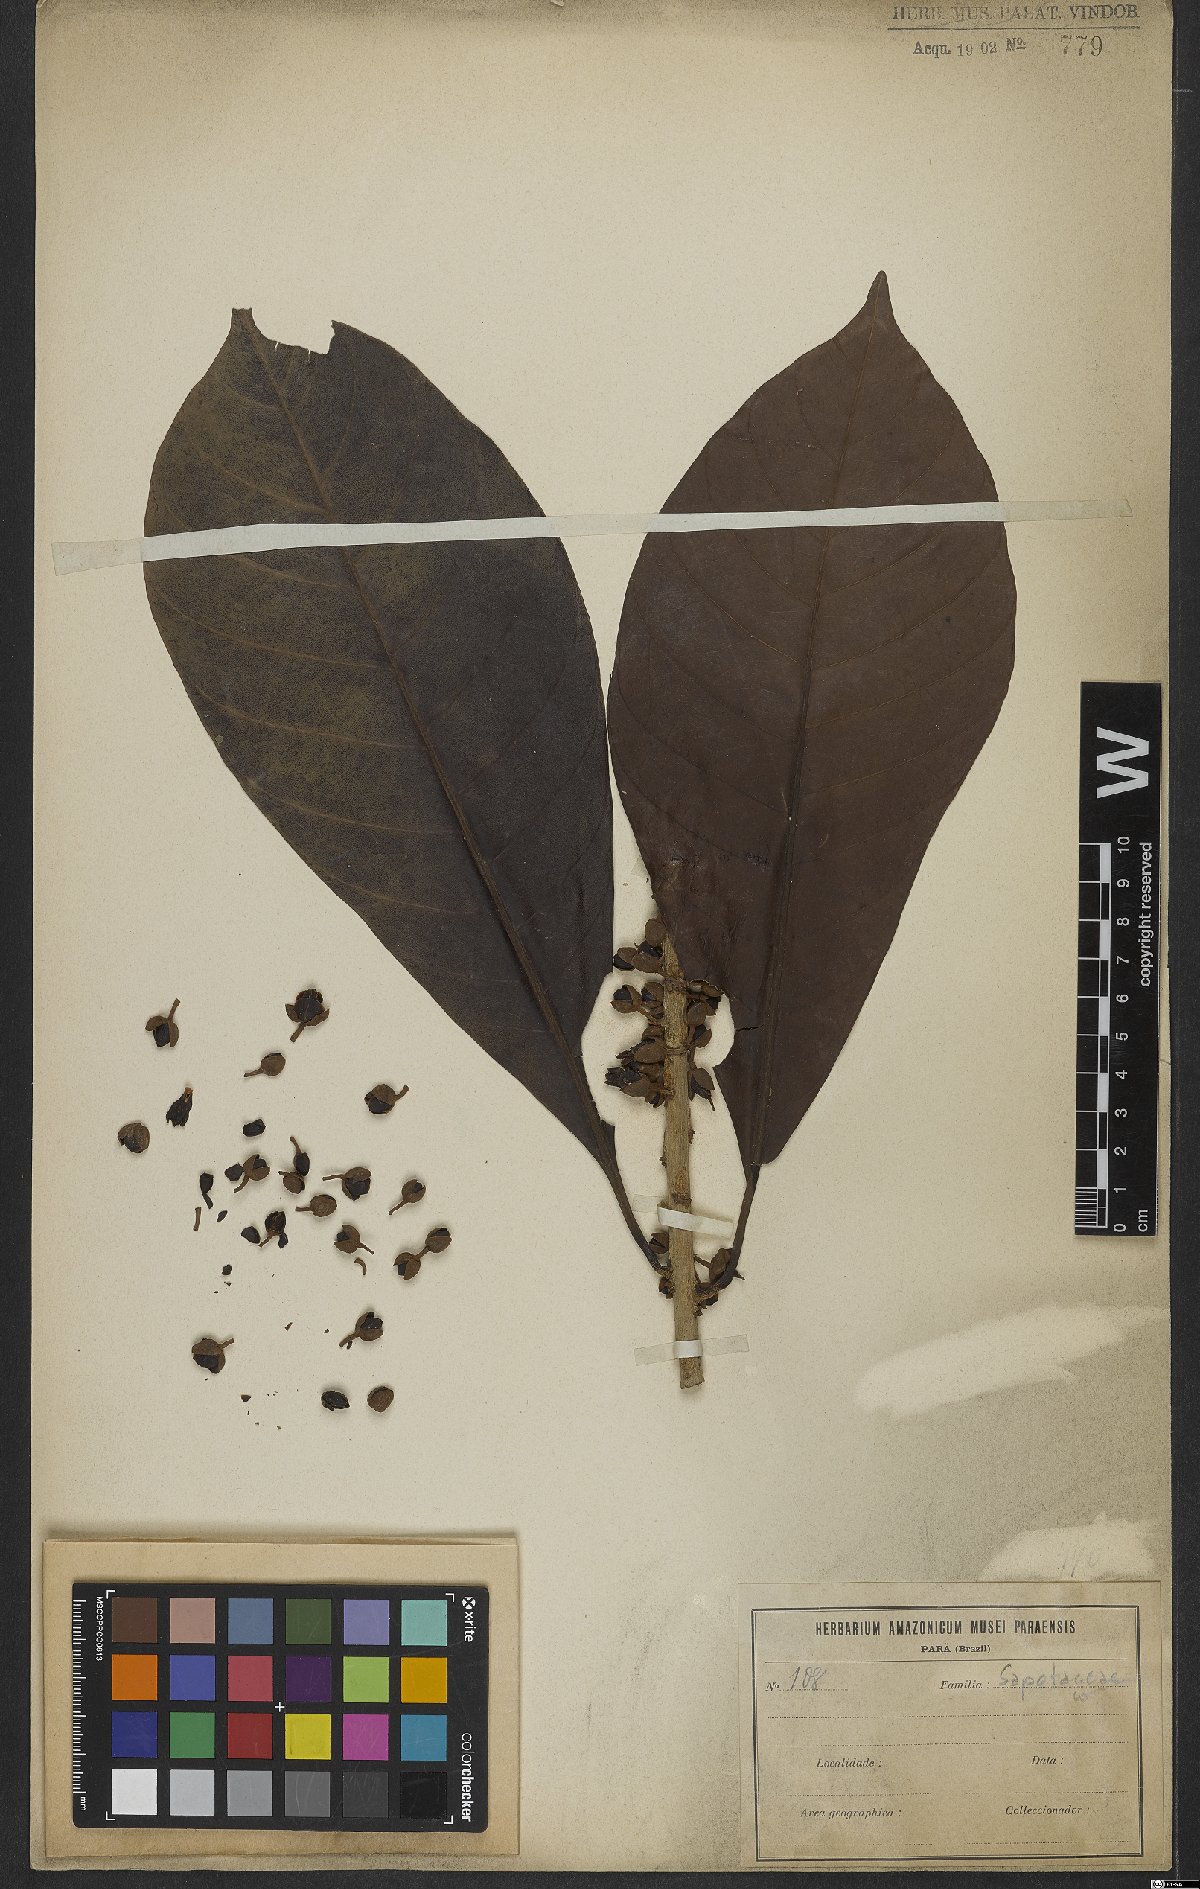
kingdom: Plantae
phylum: Tracheophyta
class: Magnoliopsida
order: Ericales
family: Sapotaceae
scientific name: Sapotaceae
